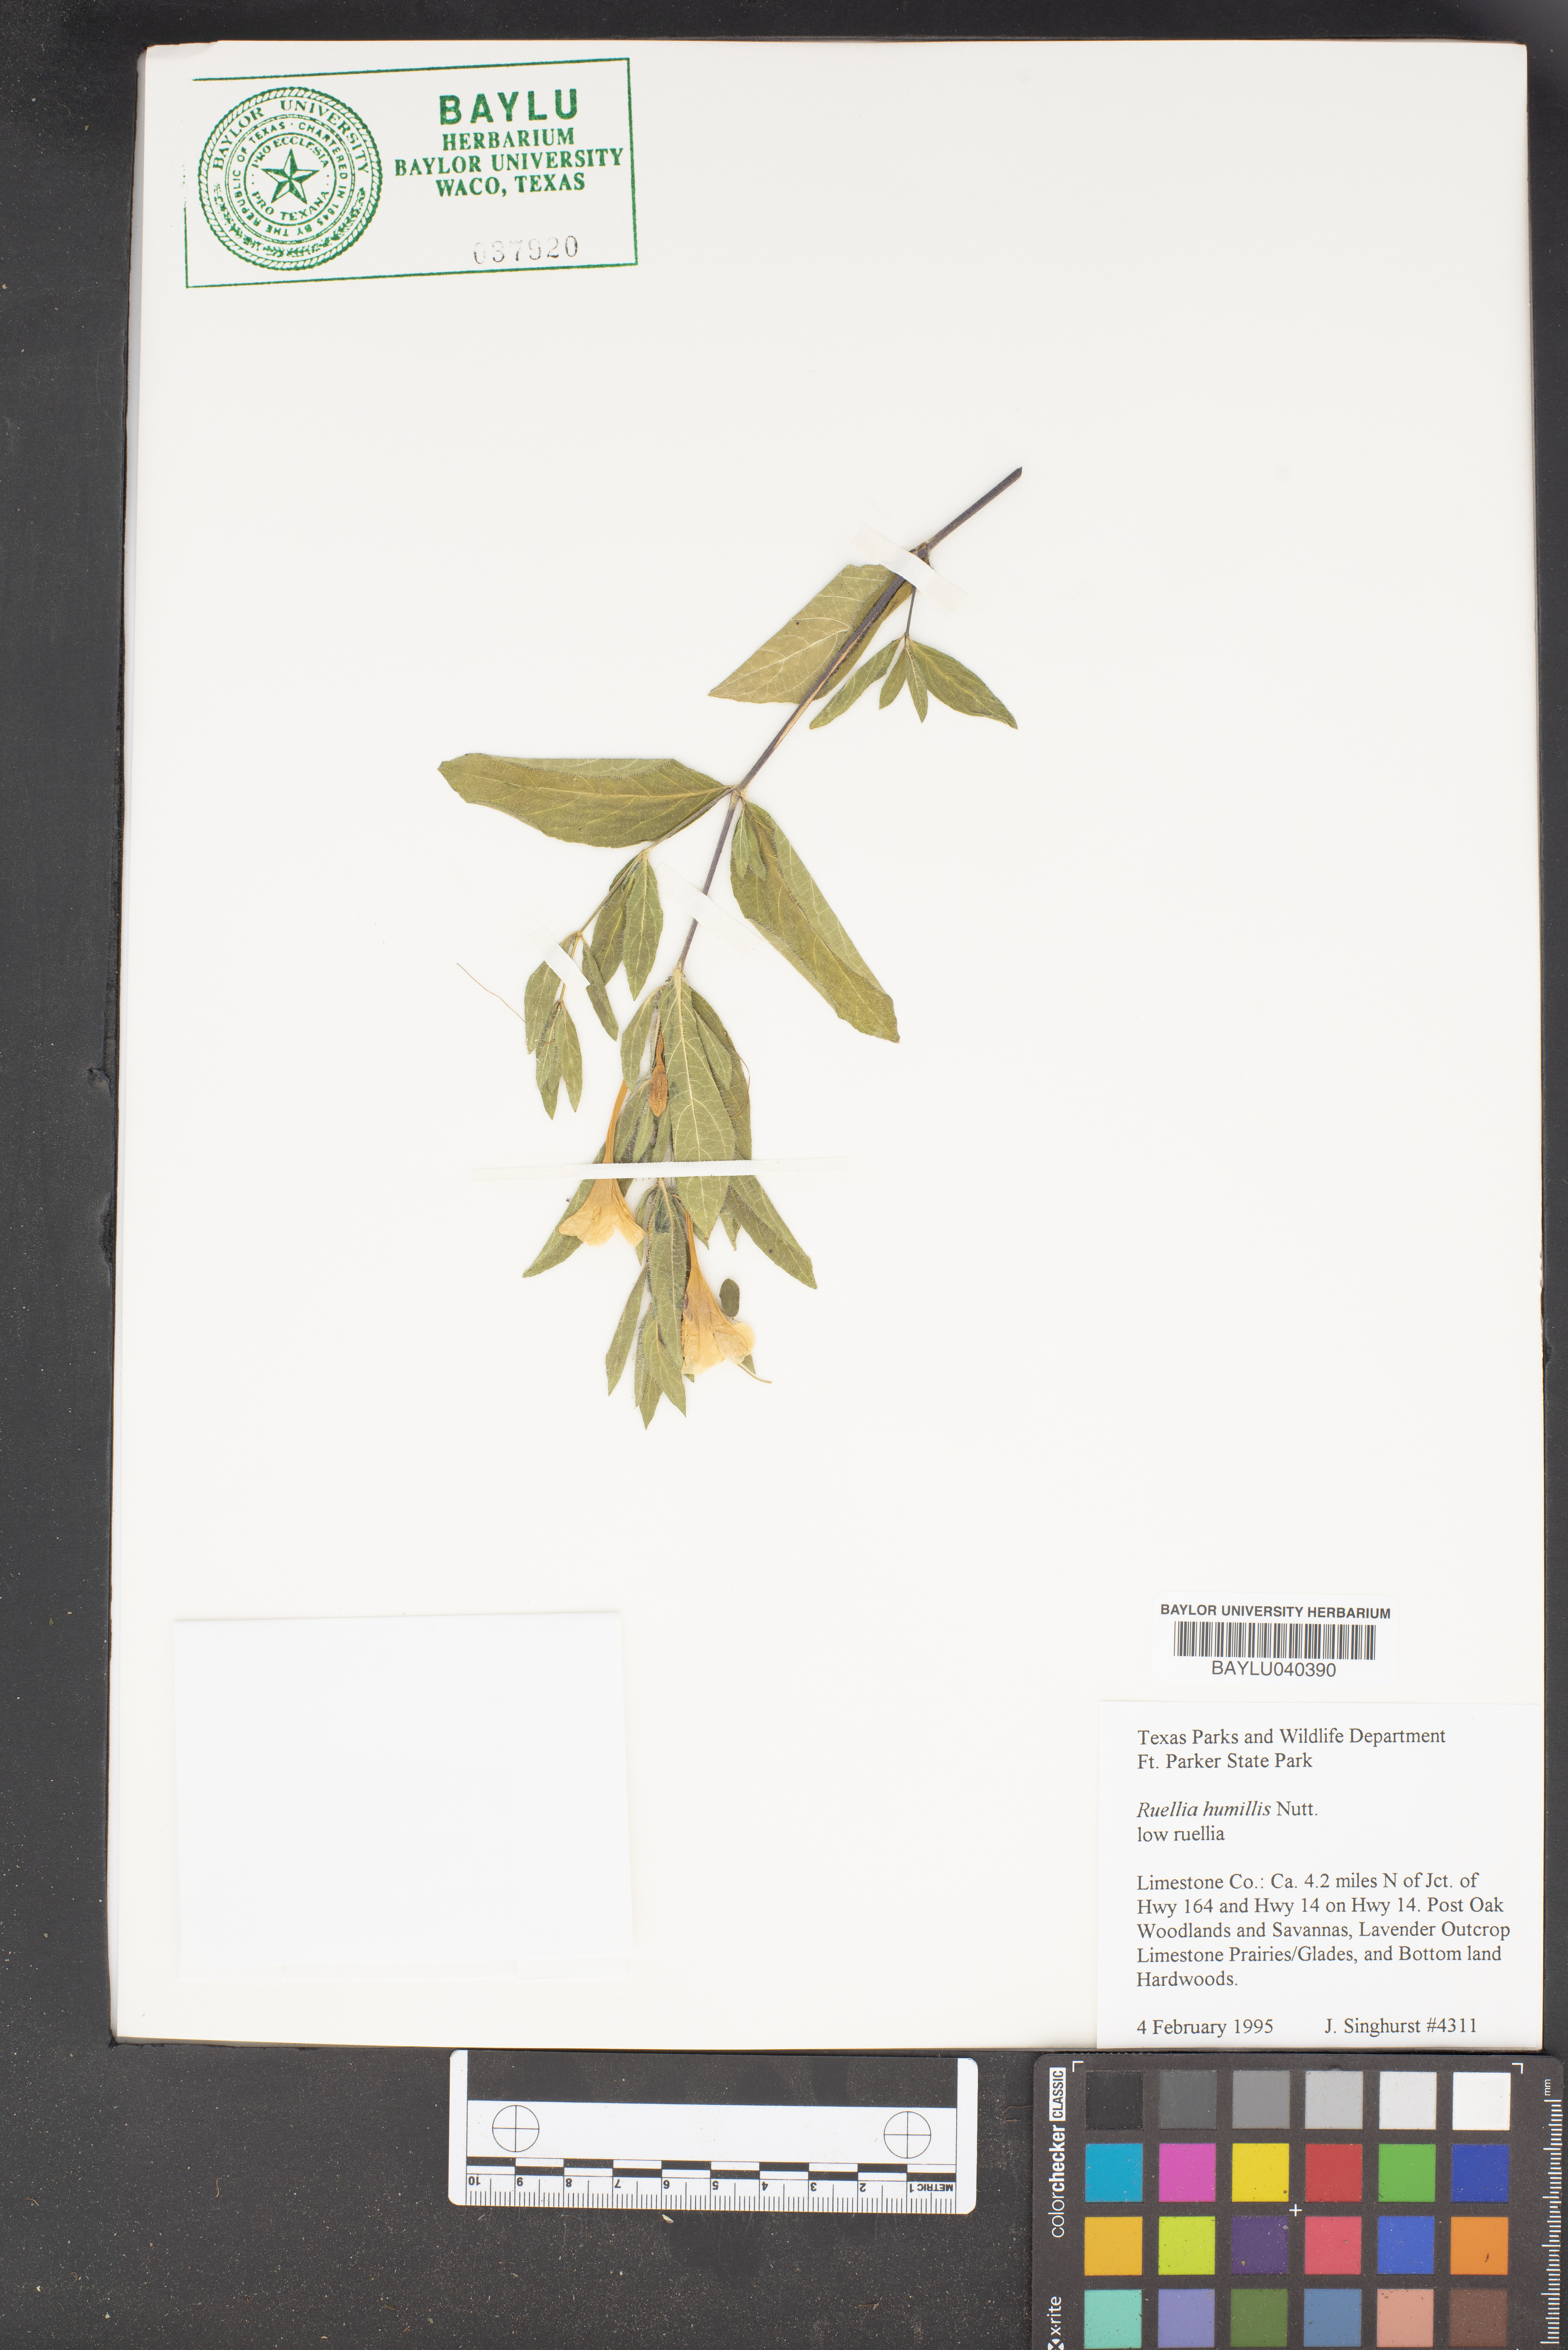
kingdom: Plantae
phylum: Tracheophyta
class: Magnoliopsida
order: Lamiales
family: Acanthaceae
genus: Ruellia
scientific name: Ruellia humilis
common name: Fringe-leaf ruellia
